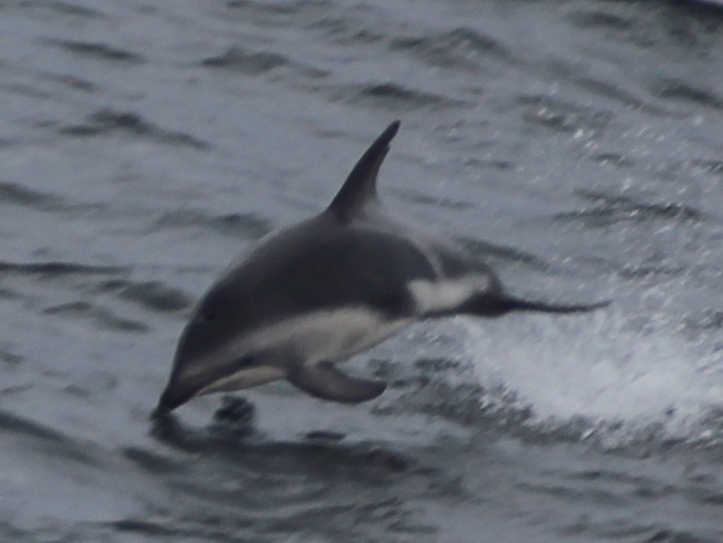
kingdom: Animalia
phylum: Chordata
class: Mammalia
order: Cetacea
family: Delphinidae
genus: Lagenorhynchus
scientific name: Lagenorhynchus obscurus
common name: Dusky dolphin
